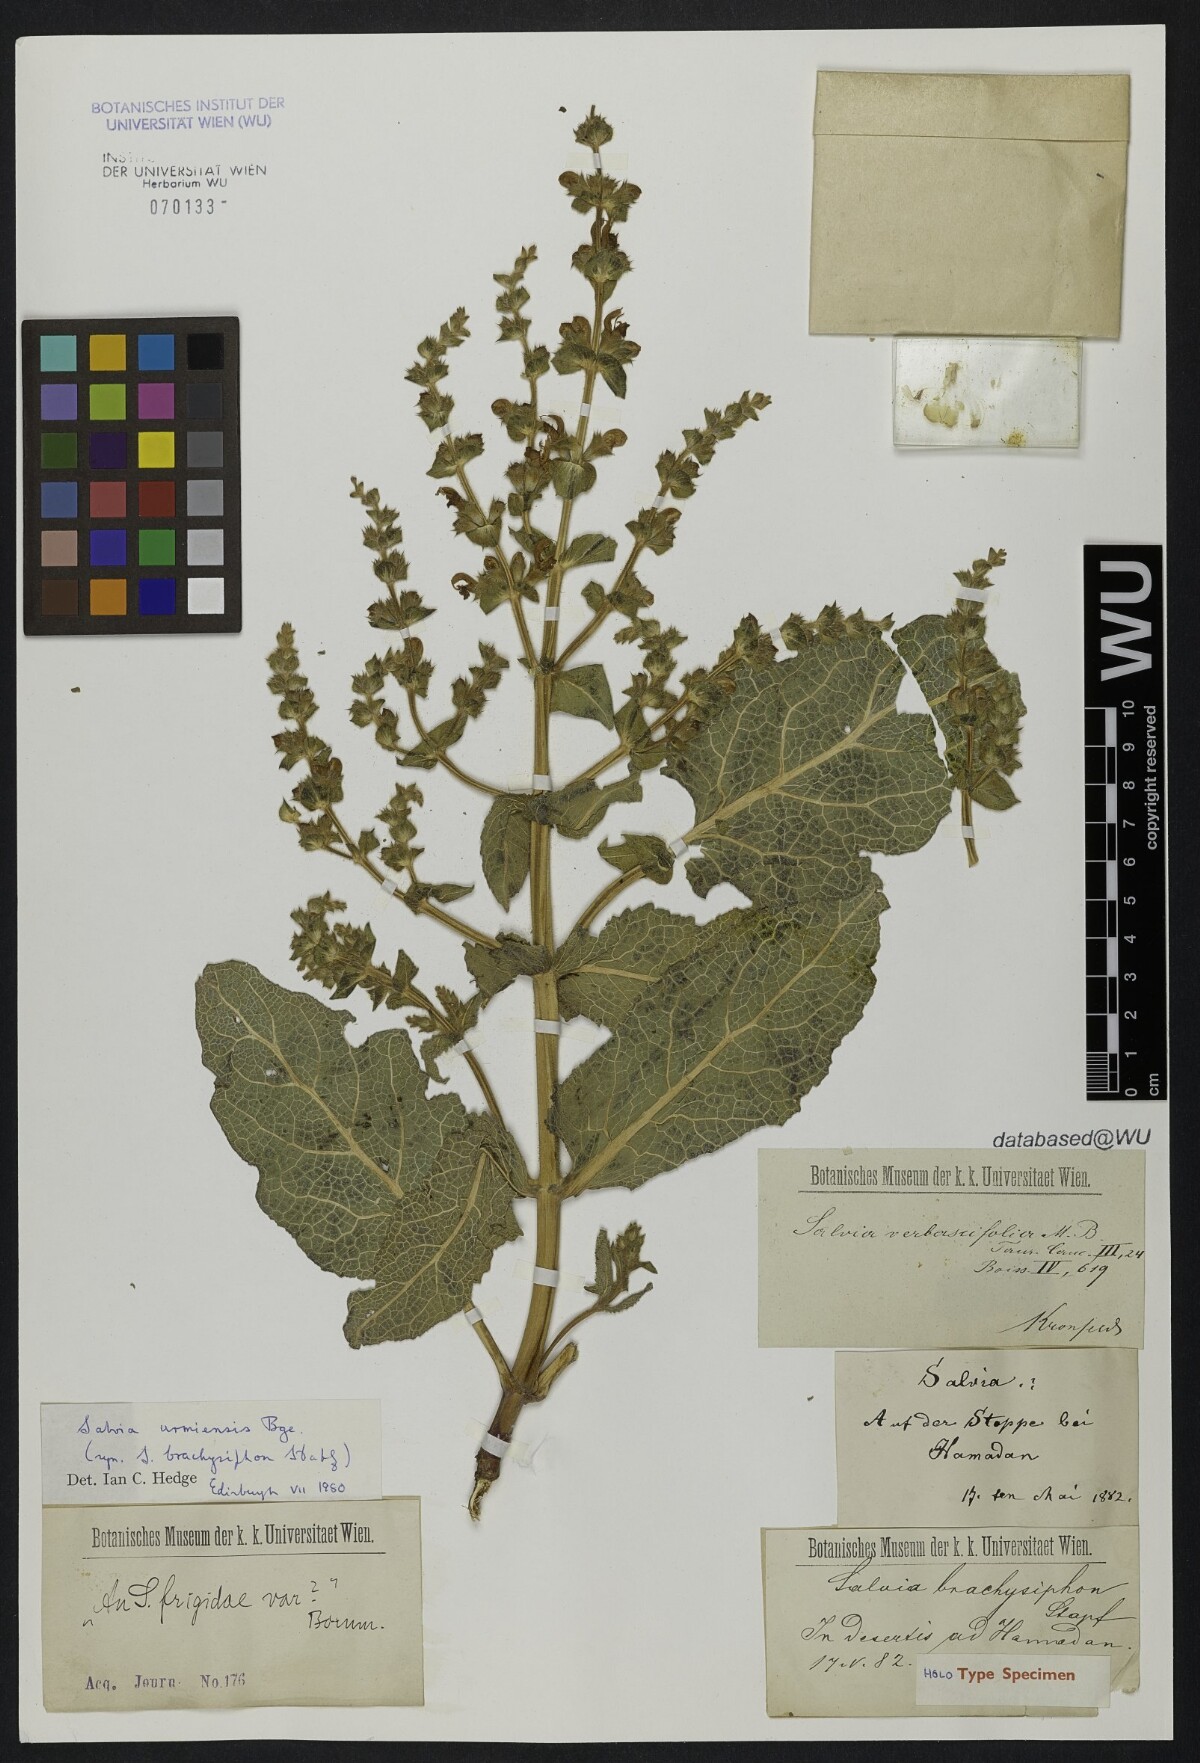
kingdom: Plantae
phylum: Tracheophyta
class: Magnoliopsida
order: Lamiales
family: Lamiaceae
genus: Salvia
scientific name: Salvia urmiensis
